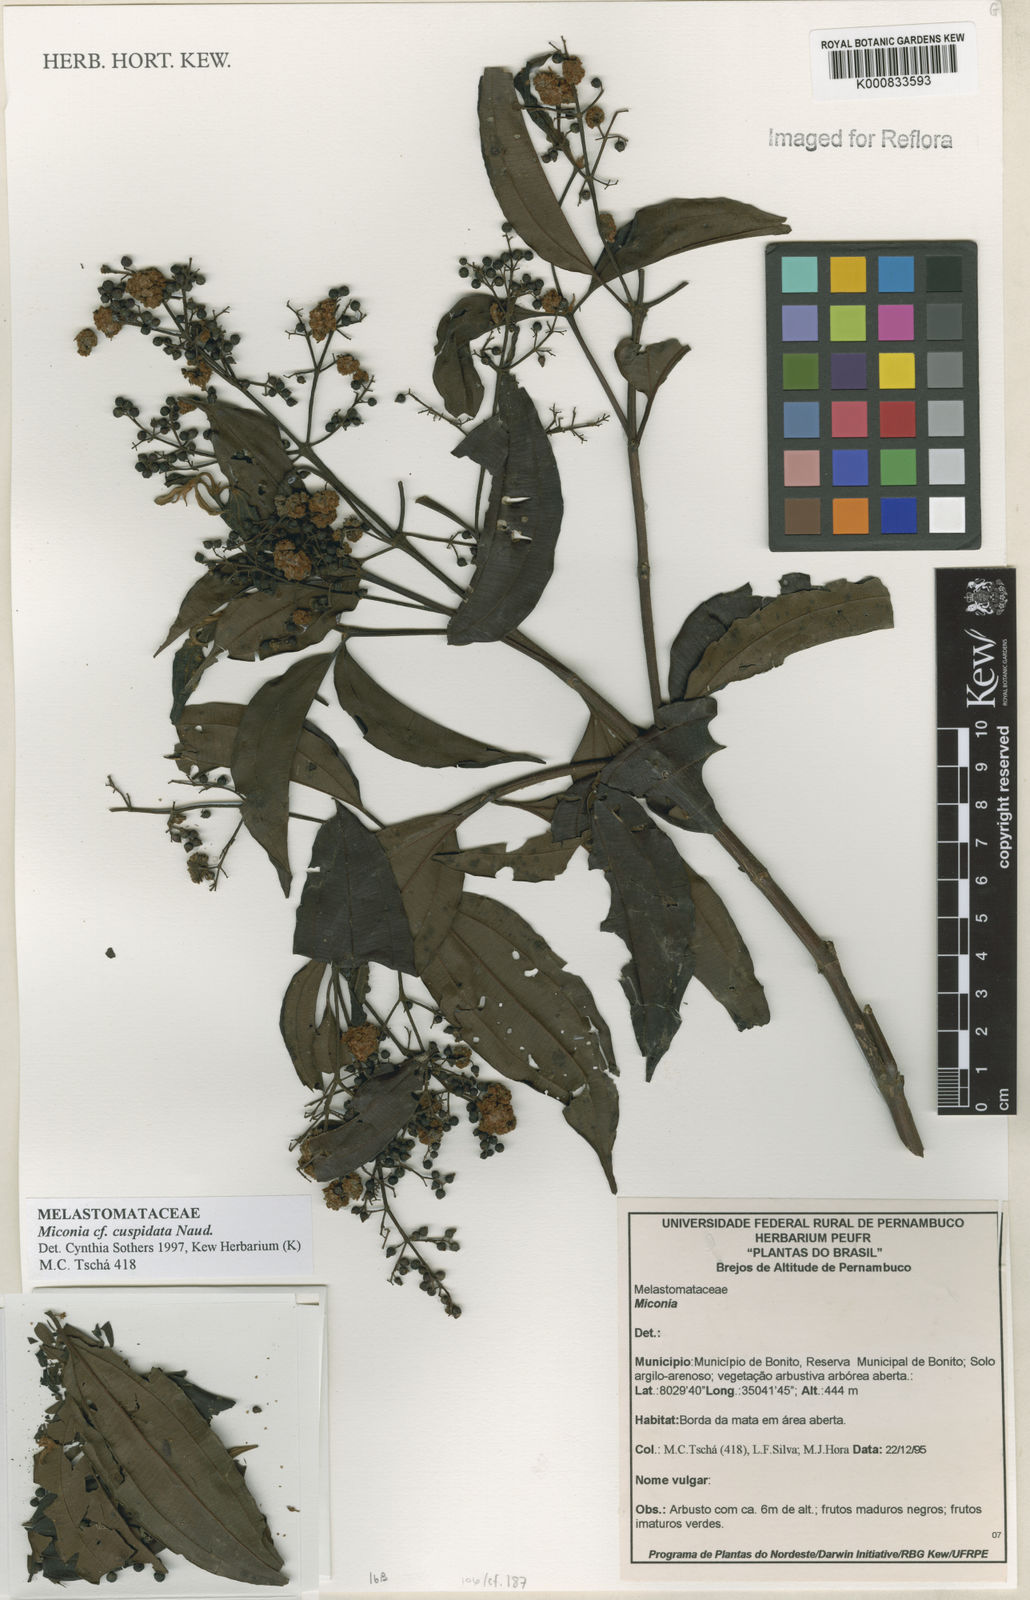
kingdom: Plantae
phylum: Tracheophyta
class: Magnoliopsida
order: Myrtales
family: Melastomataceae
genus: Miconia
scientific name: Miconia cuspidata
